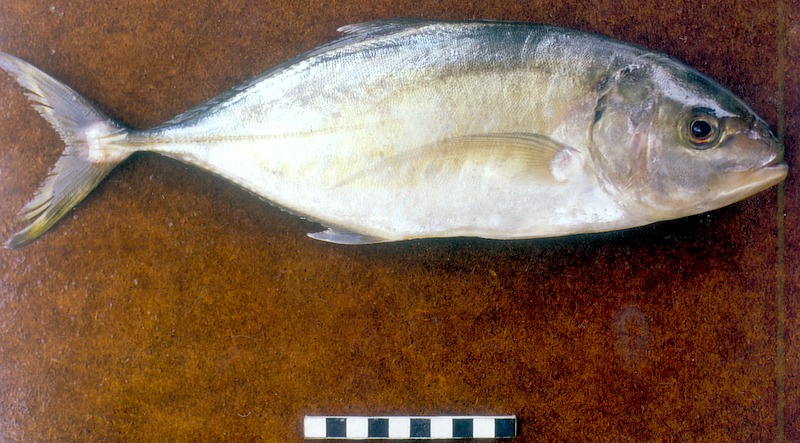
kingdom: Animalia
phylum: Chordata
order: Perciformes
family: Carangidae
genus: Carangoides
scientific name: Carangoides malabaricus
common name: Malabar trevally
